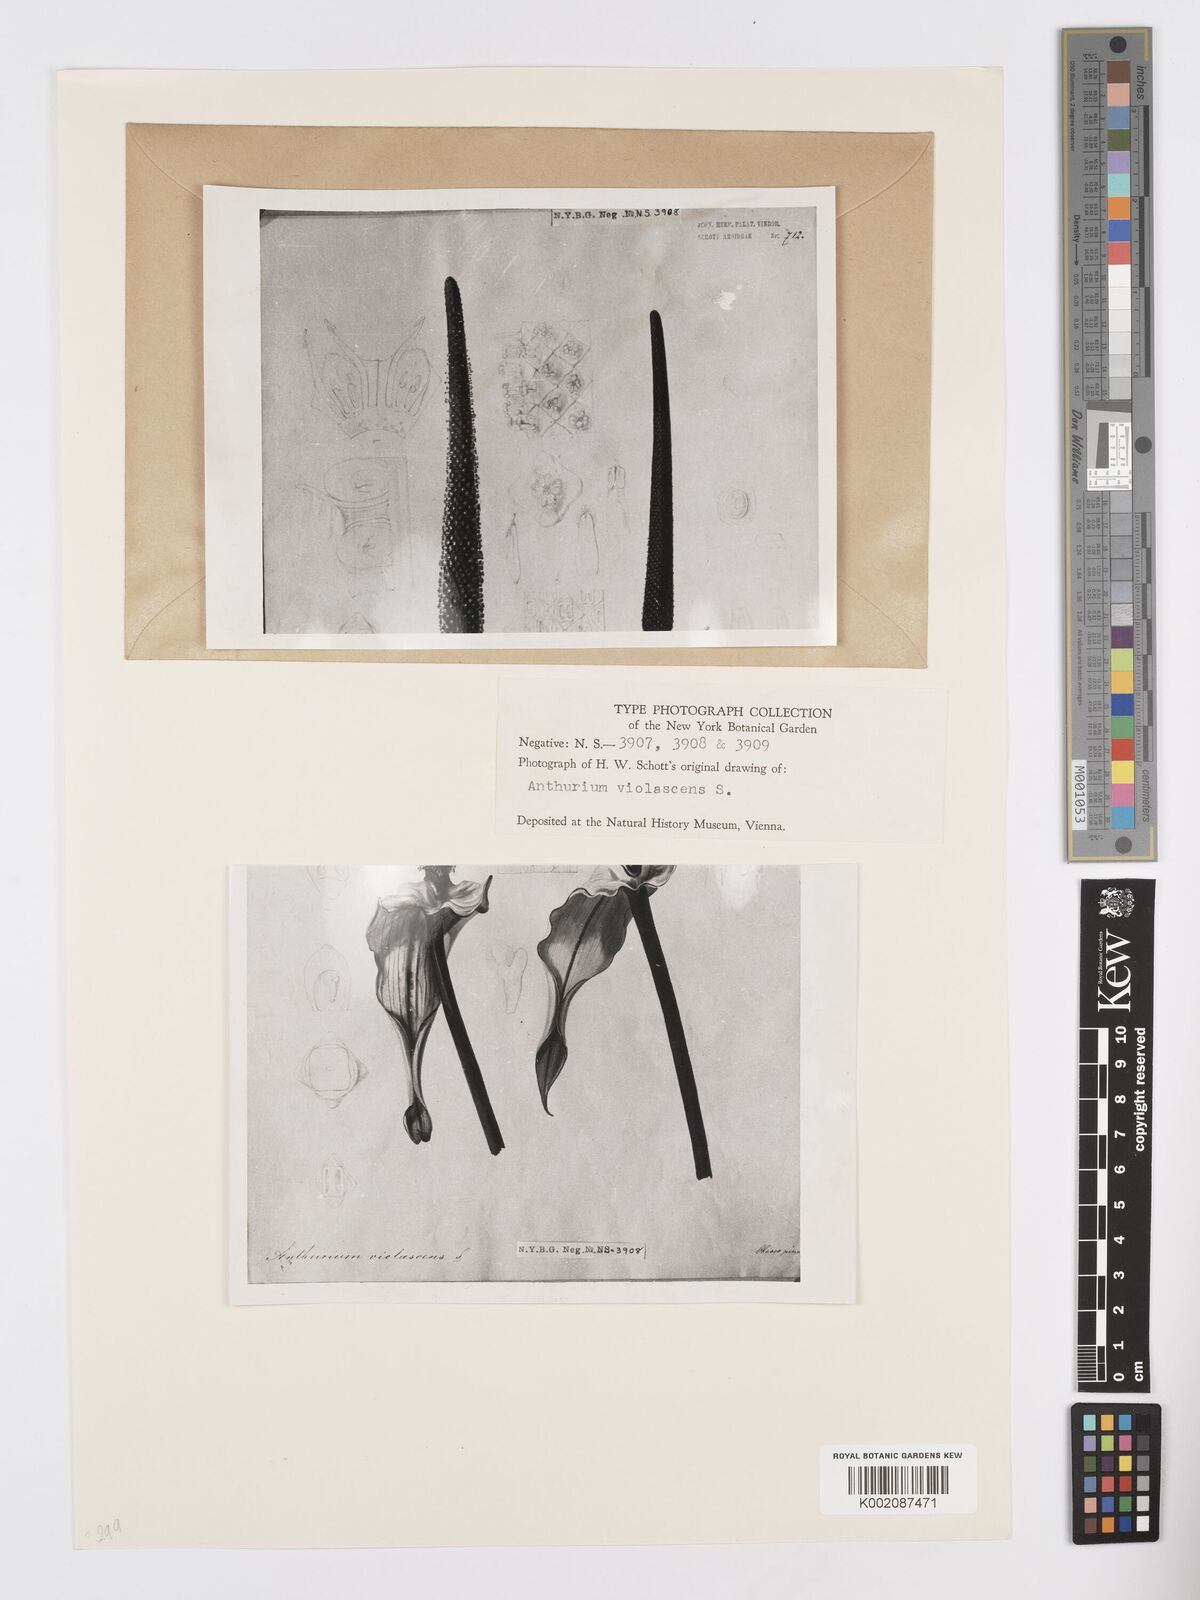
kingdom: Plantae
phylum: Tracheophyta
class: Liliopsida
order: Alismatales
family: Araceae
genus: Anthurium
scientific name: Anthurium macrophyllum
